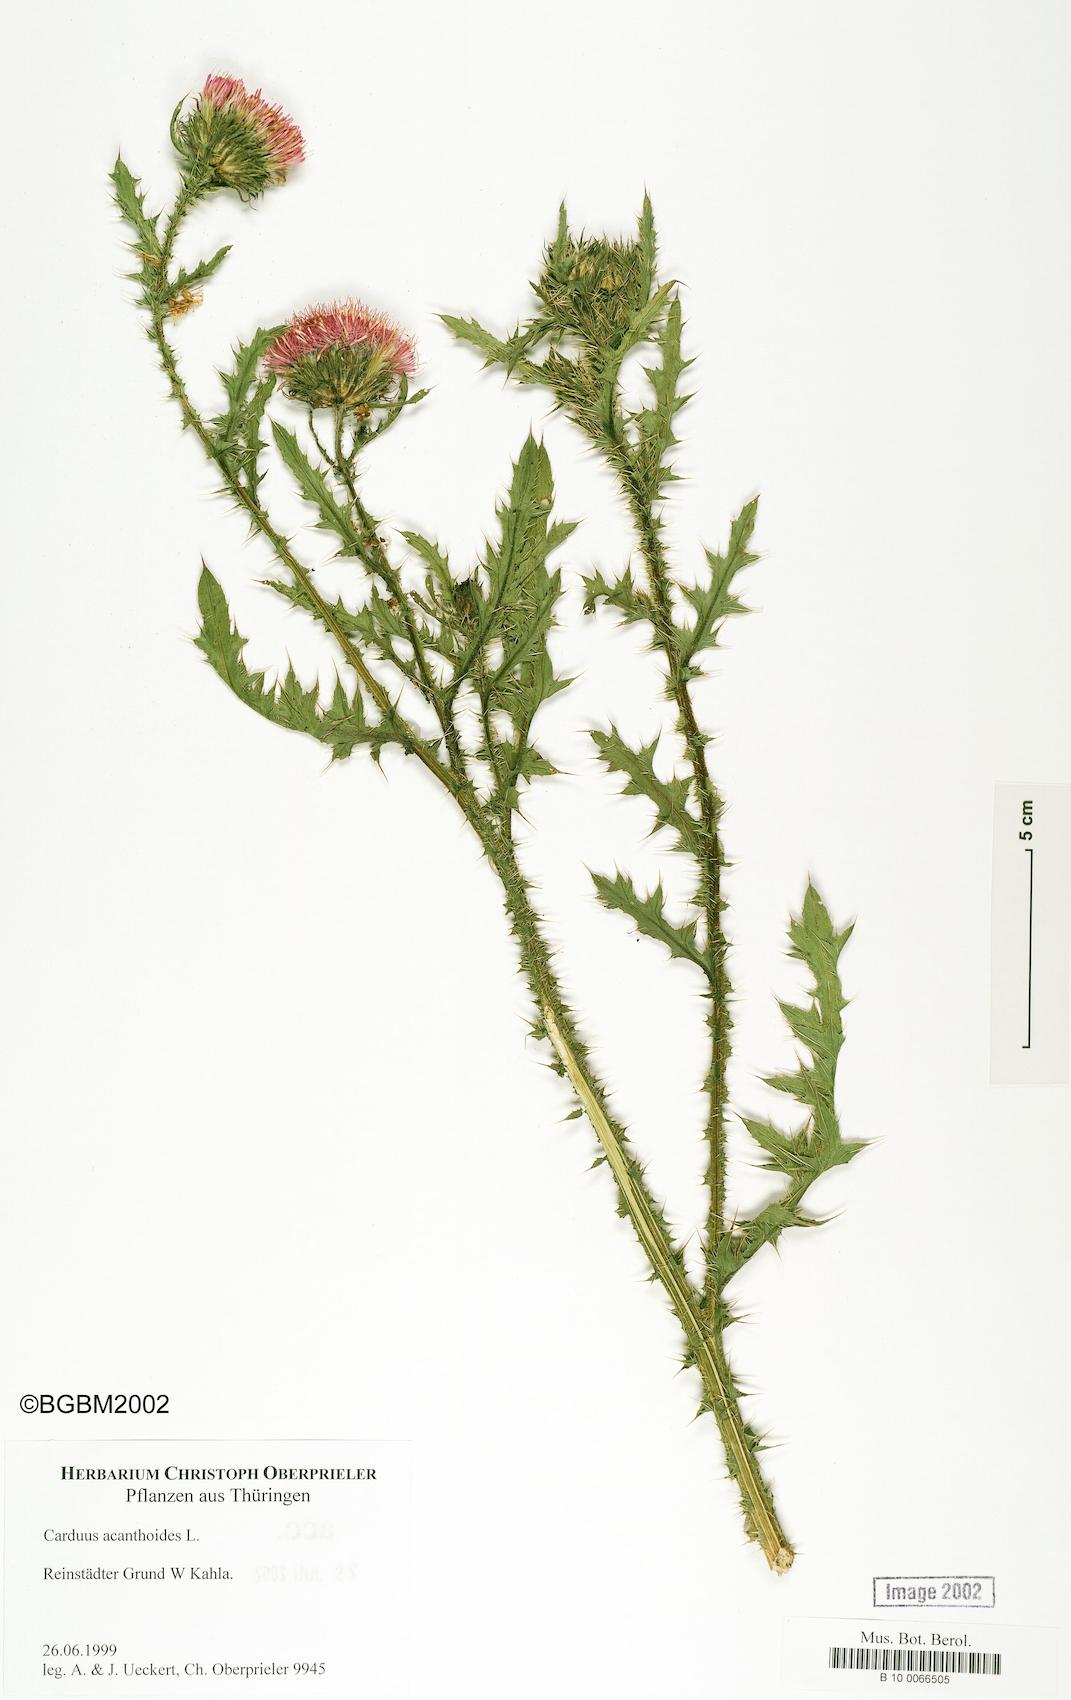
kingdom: Plantae
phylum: Tracheophyta
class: Magnoliopsida
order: Asterales
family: Asteraceae
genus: Carduus
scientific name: Carduus acanthoides
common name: Plumeless thistle
